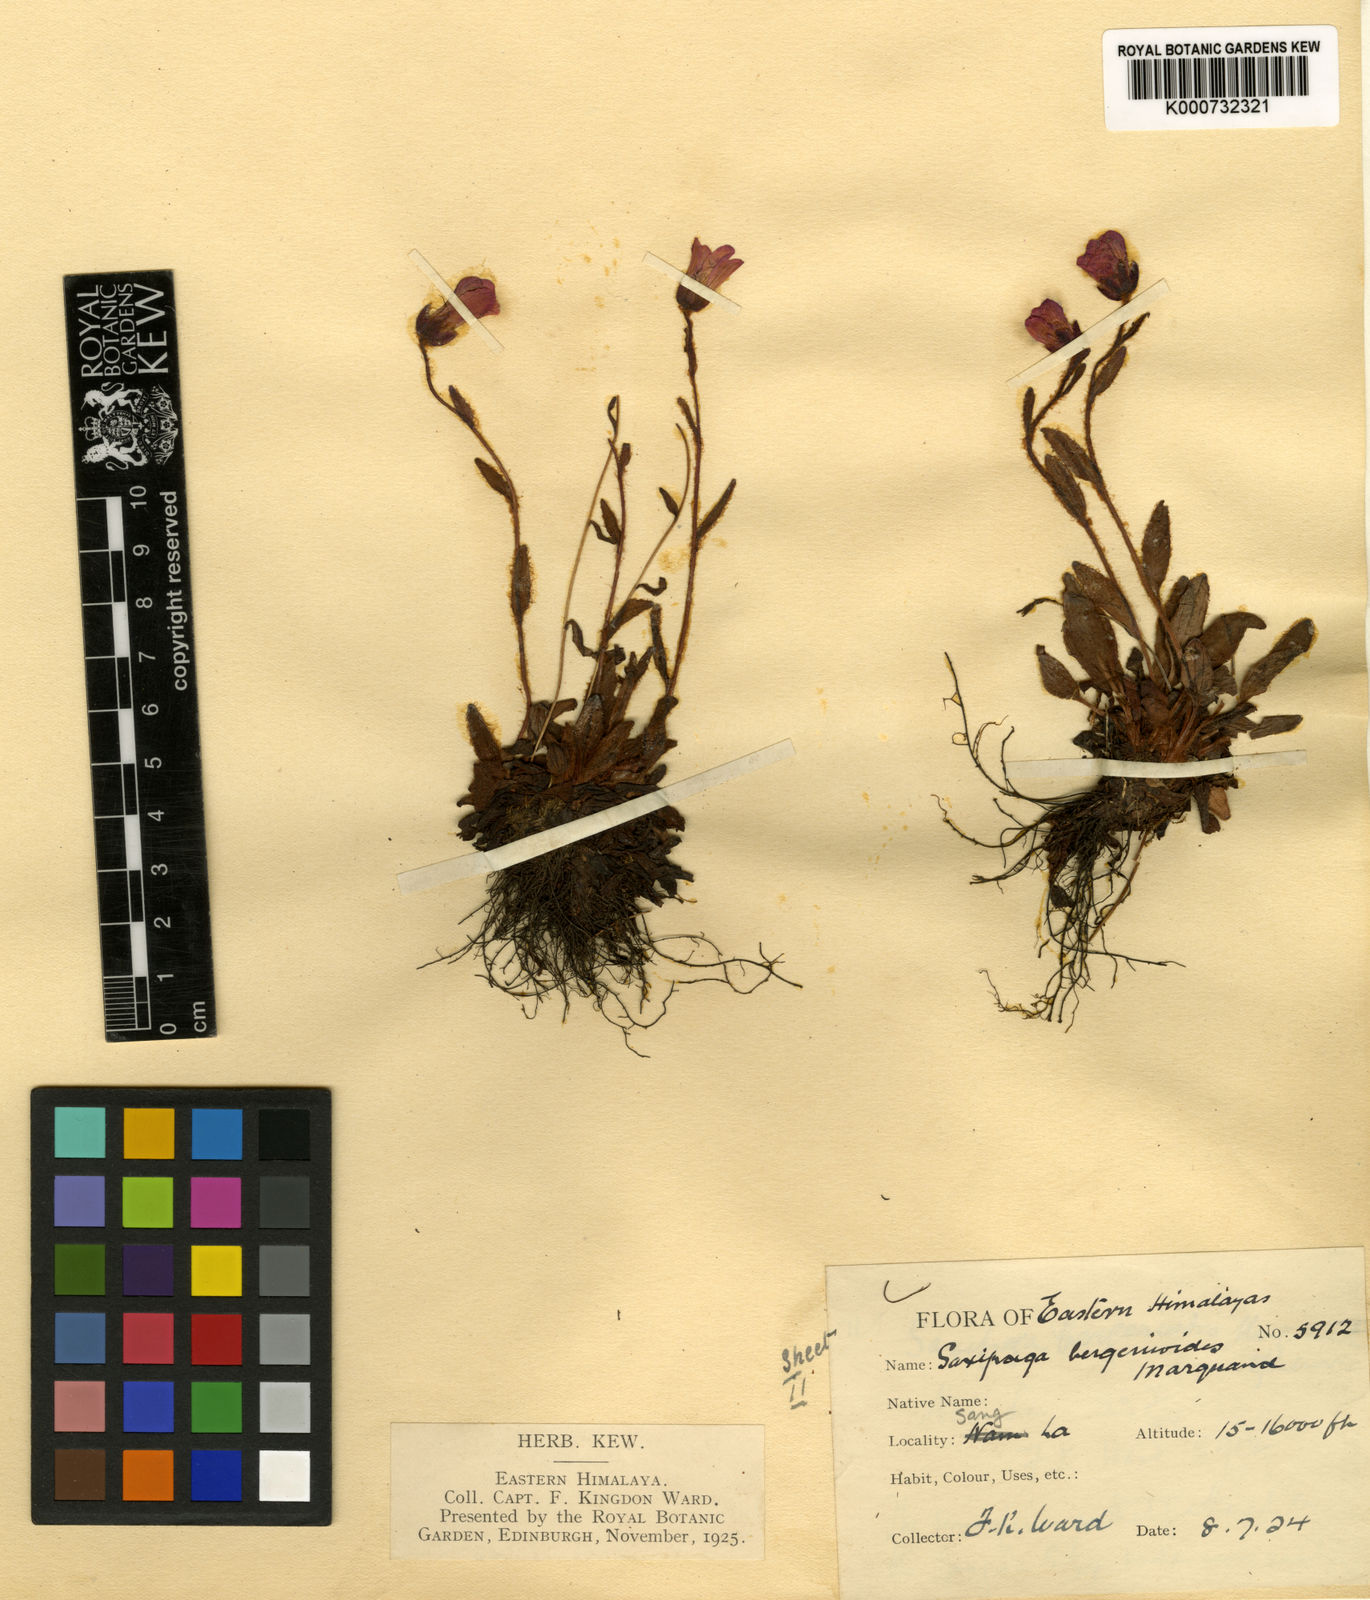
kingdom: Plantae
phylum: Tracheophyta
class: Magnoliopsida
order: Saxifragales
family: Saxifragaceae
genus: Saxifraga
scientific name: Saxifraga bergenioides
